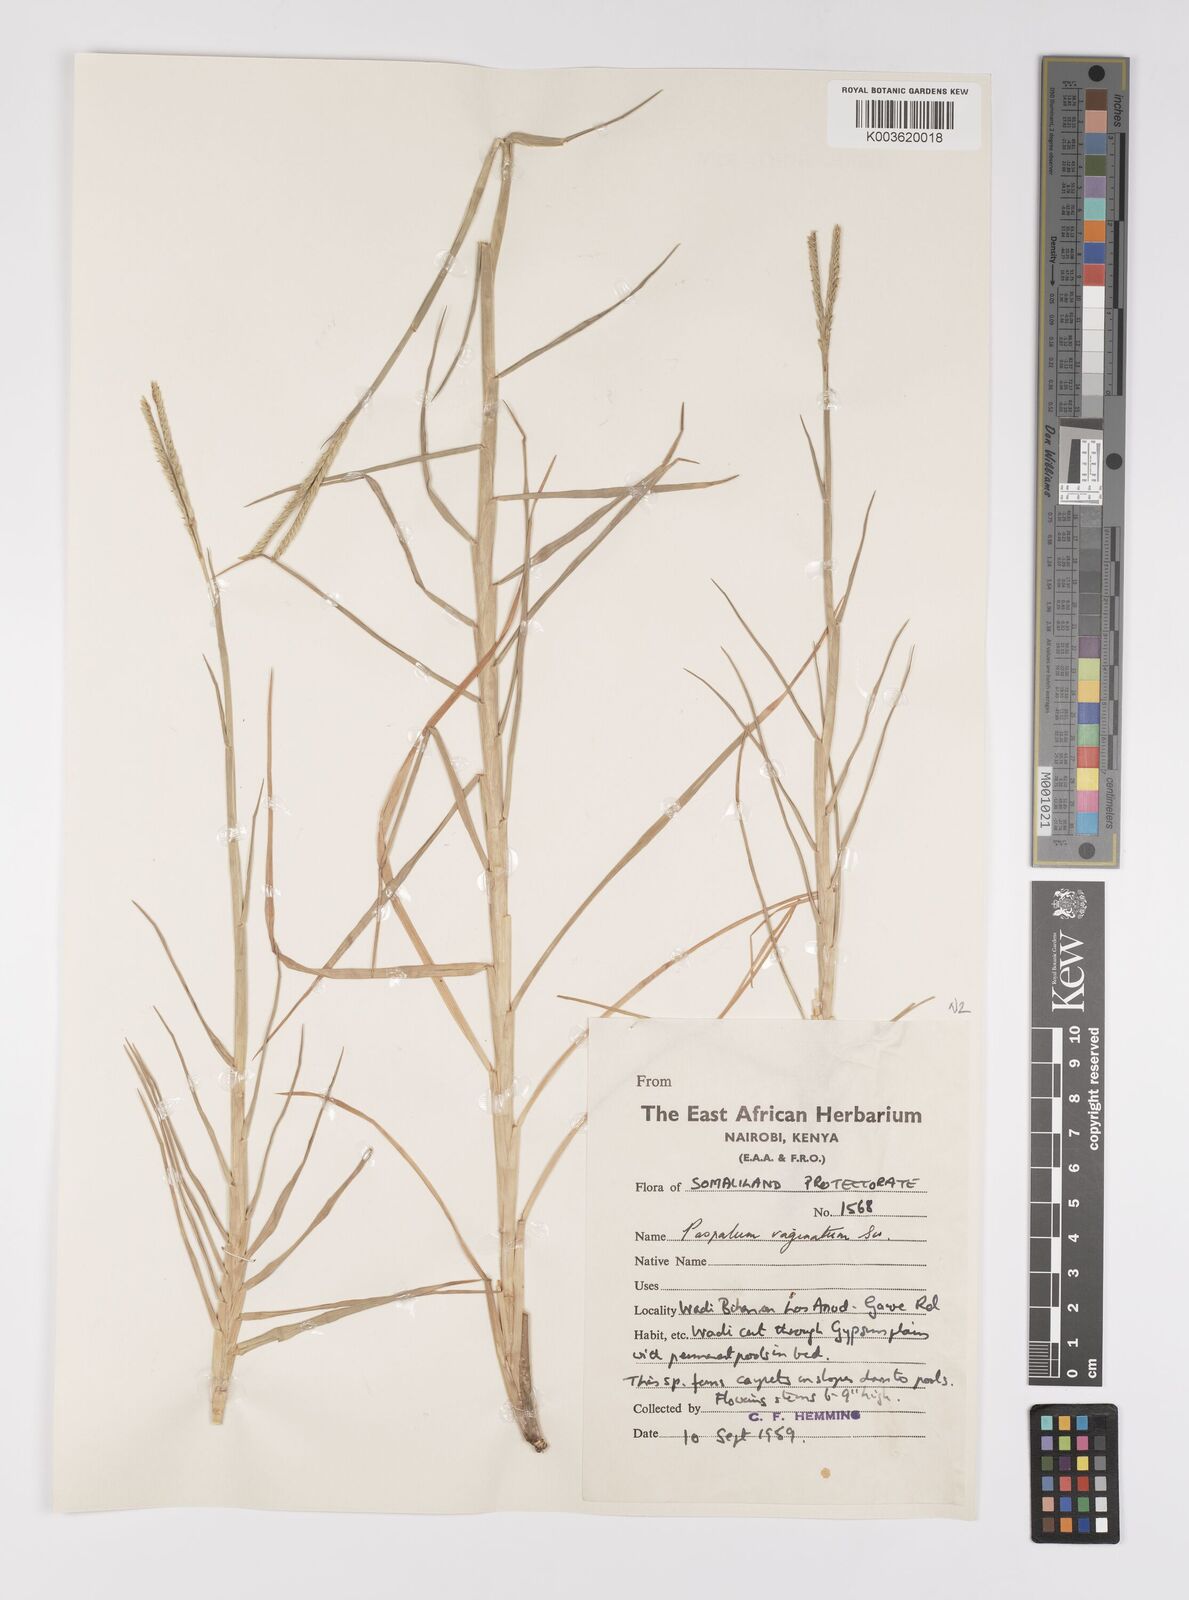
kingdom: Plantae
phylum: Tracheophyta
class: Liliopsida
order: Poales
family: Poaceae
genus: Paspalum
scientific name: Paspalum decumbens
